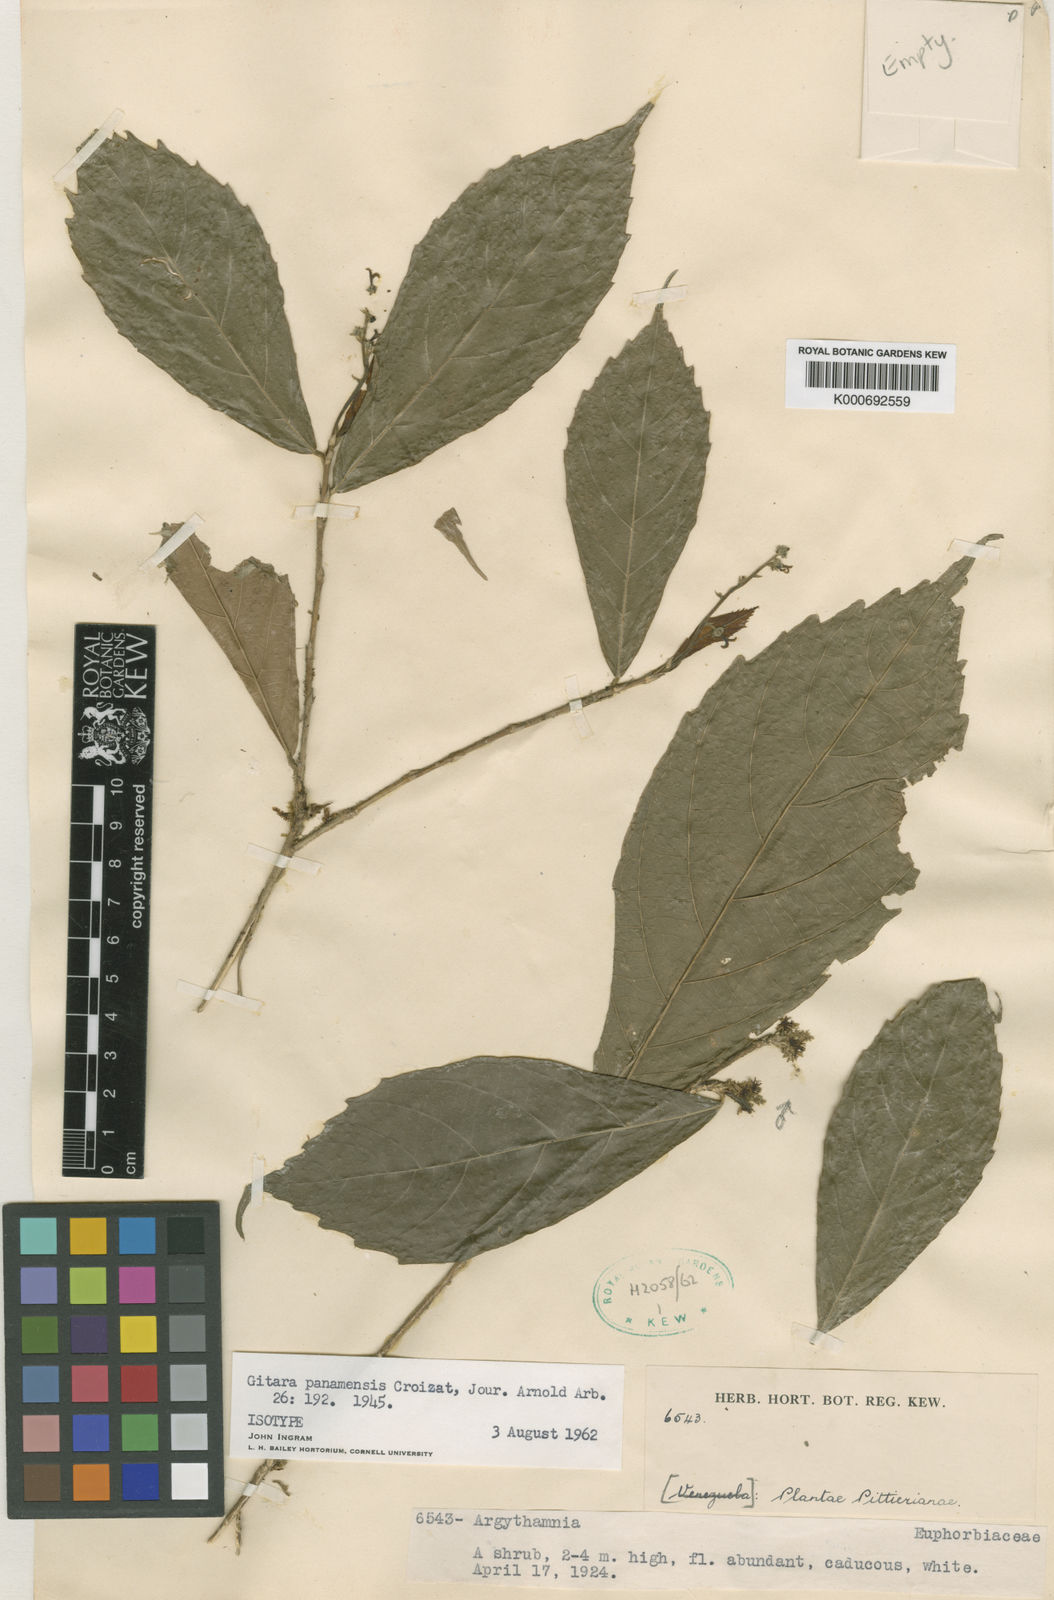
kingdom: Plantae
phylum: Tracheophyta
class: Magnoliopsida
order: Malpighiales
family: Euphorbiaceae
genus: Gitara
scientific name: Gitara nicaraguensis
